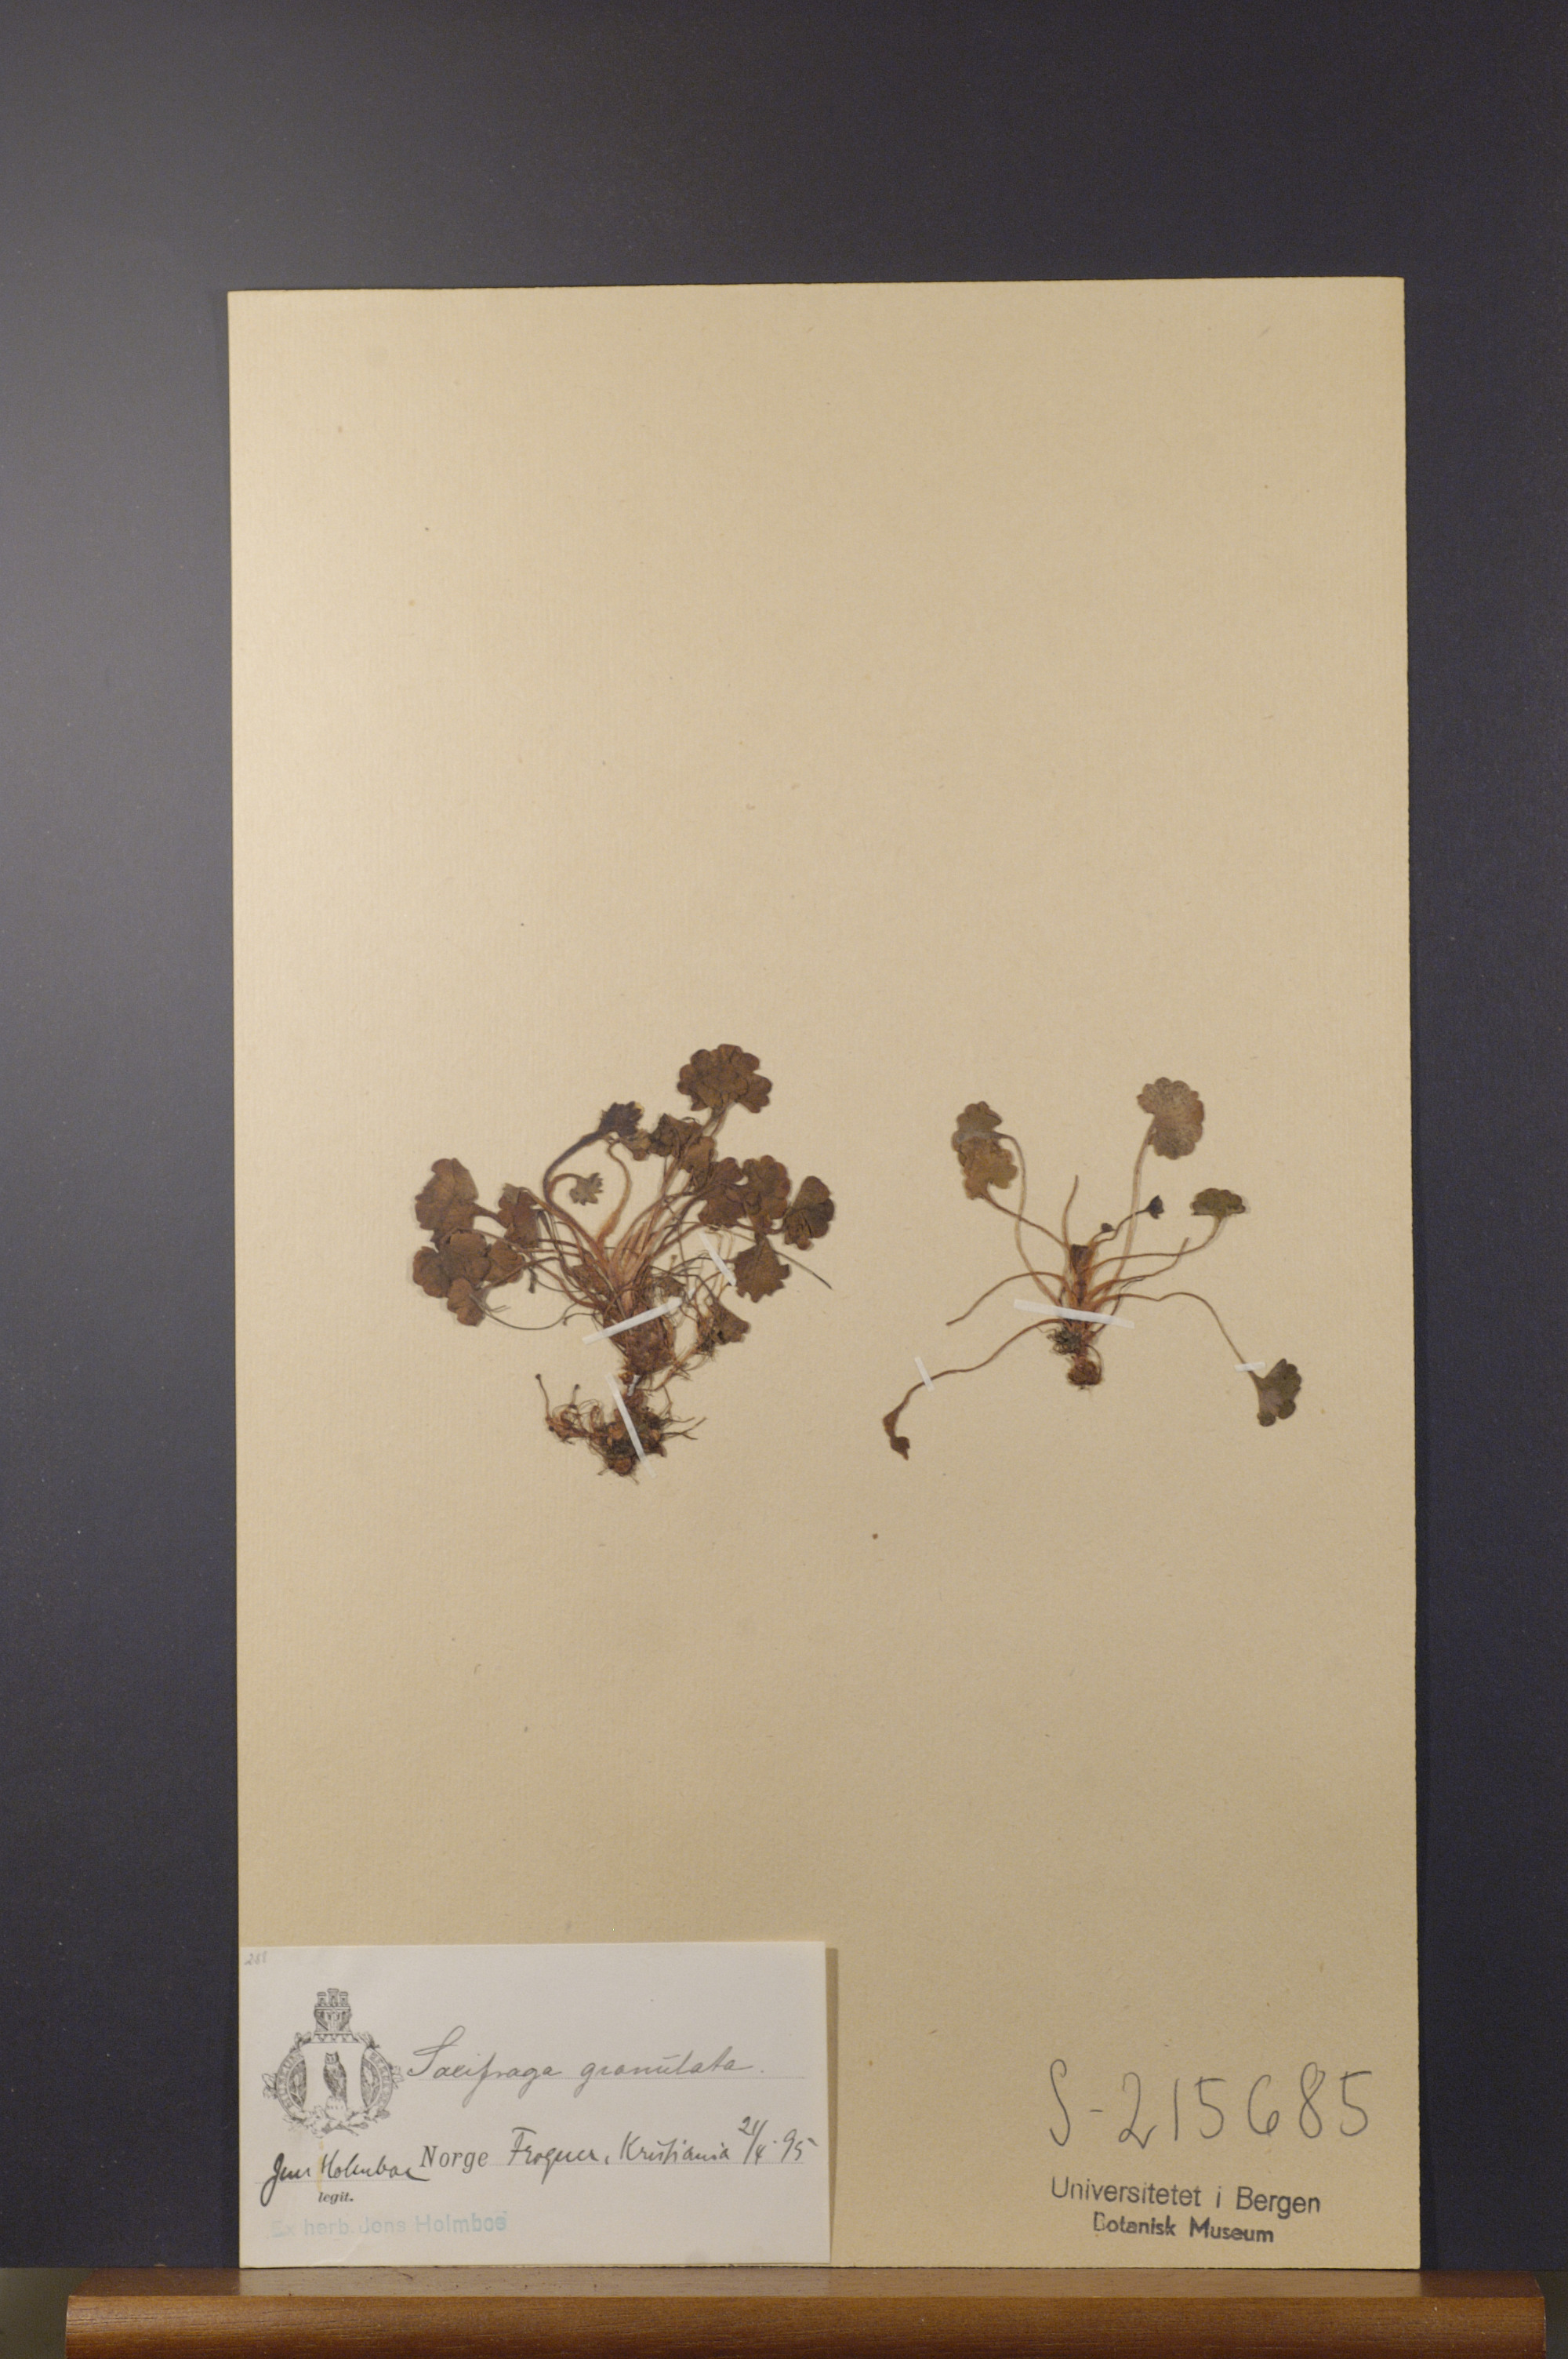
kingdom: Plantae
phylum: Tracheophyta
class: Magnoliopsida
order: Saxifragales
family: Saxifragaceae
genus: Saxifraga
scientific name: Saxifraga granulata
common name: Meadow saxifrage
